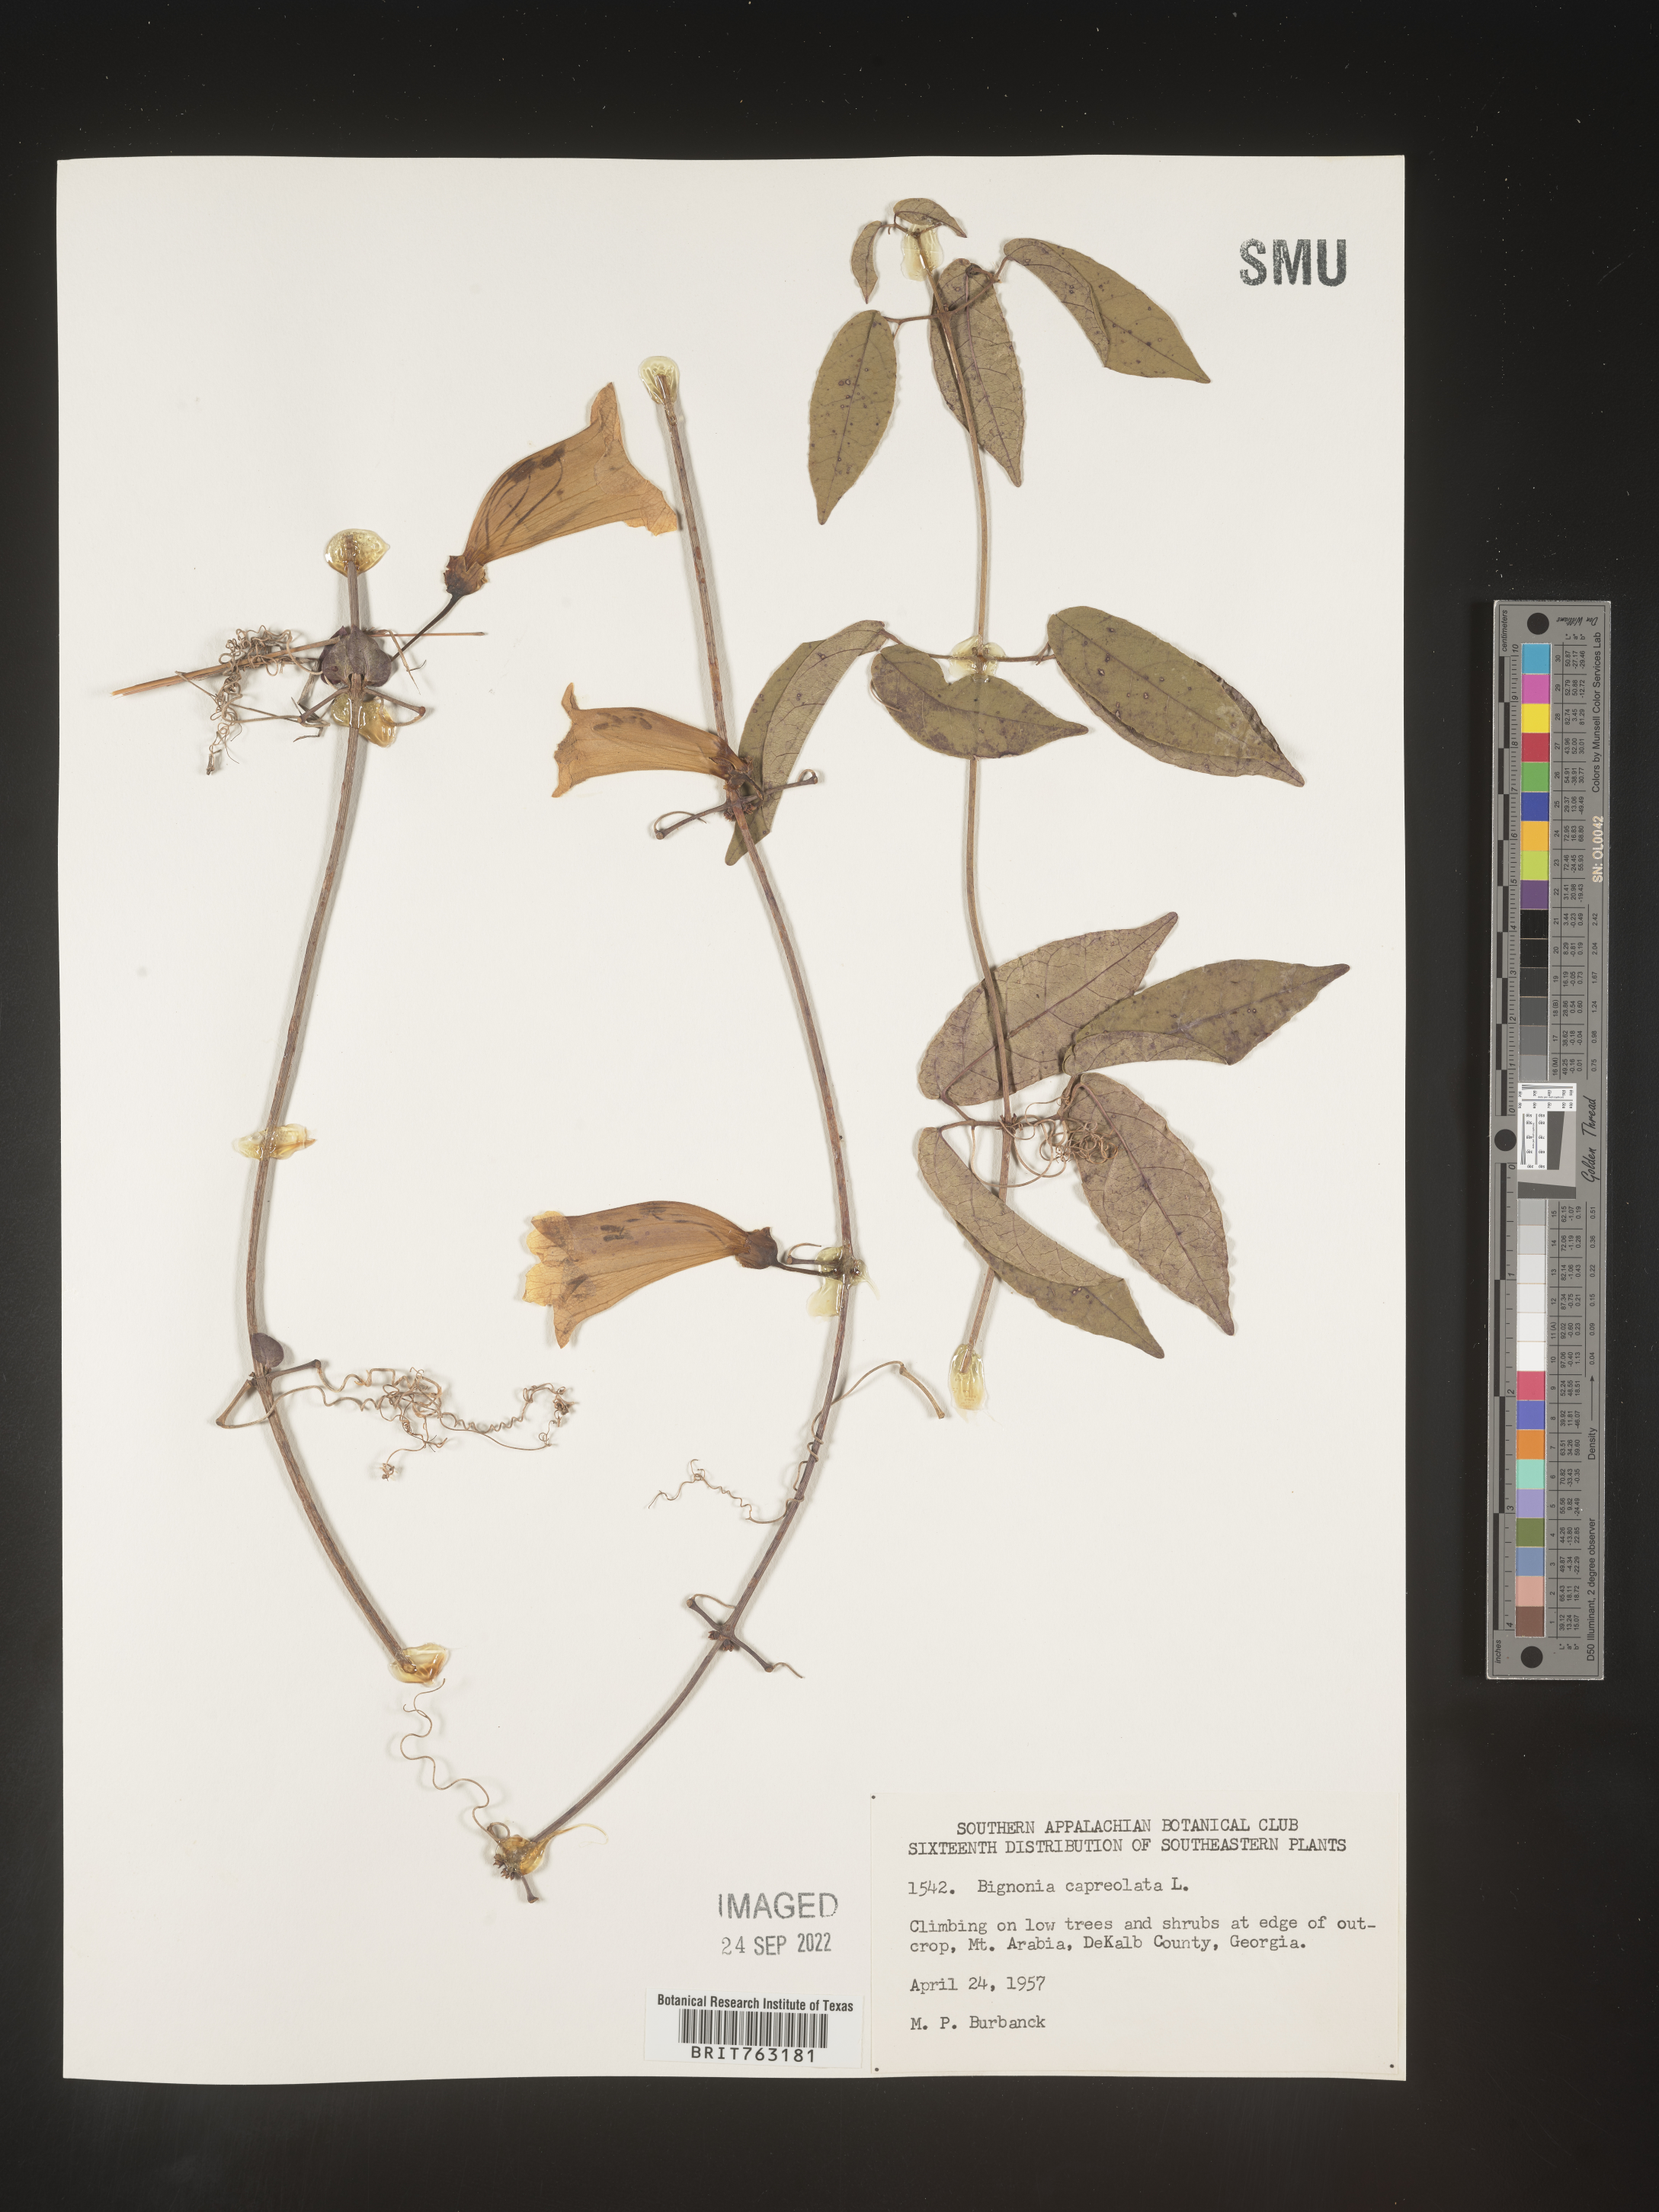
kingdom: Plantae
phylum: Tracheophyta
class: Magnoliopsida
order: Lamiales
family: Bignoniaceae
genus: Bignonia
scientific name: Bignonia capreolata
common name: Crossvine
